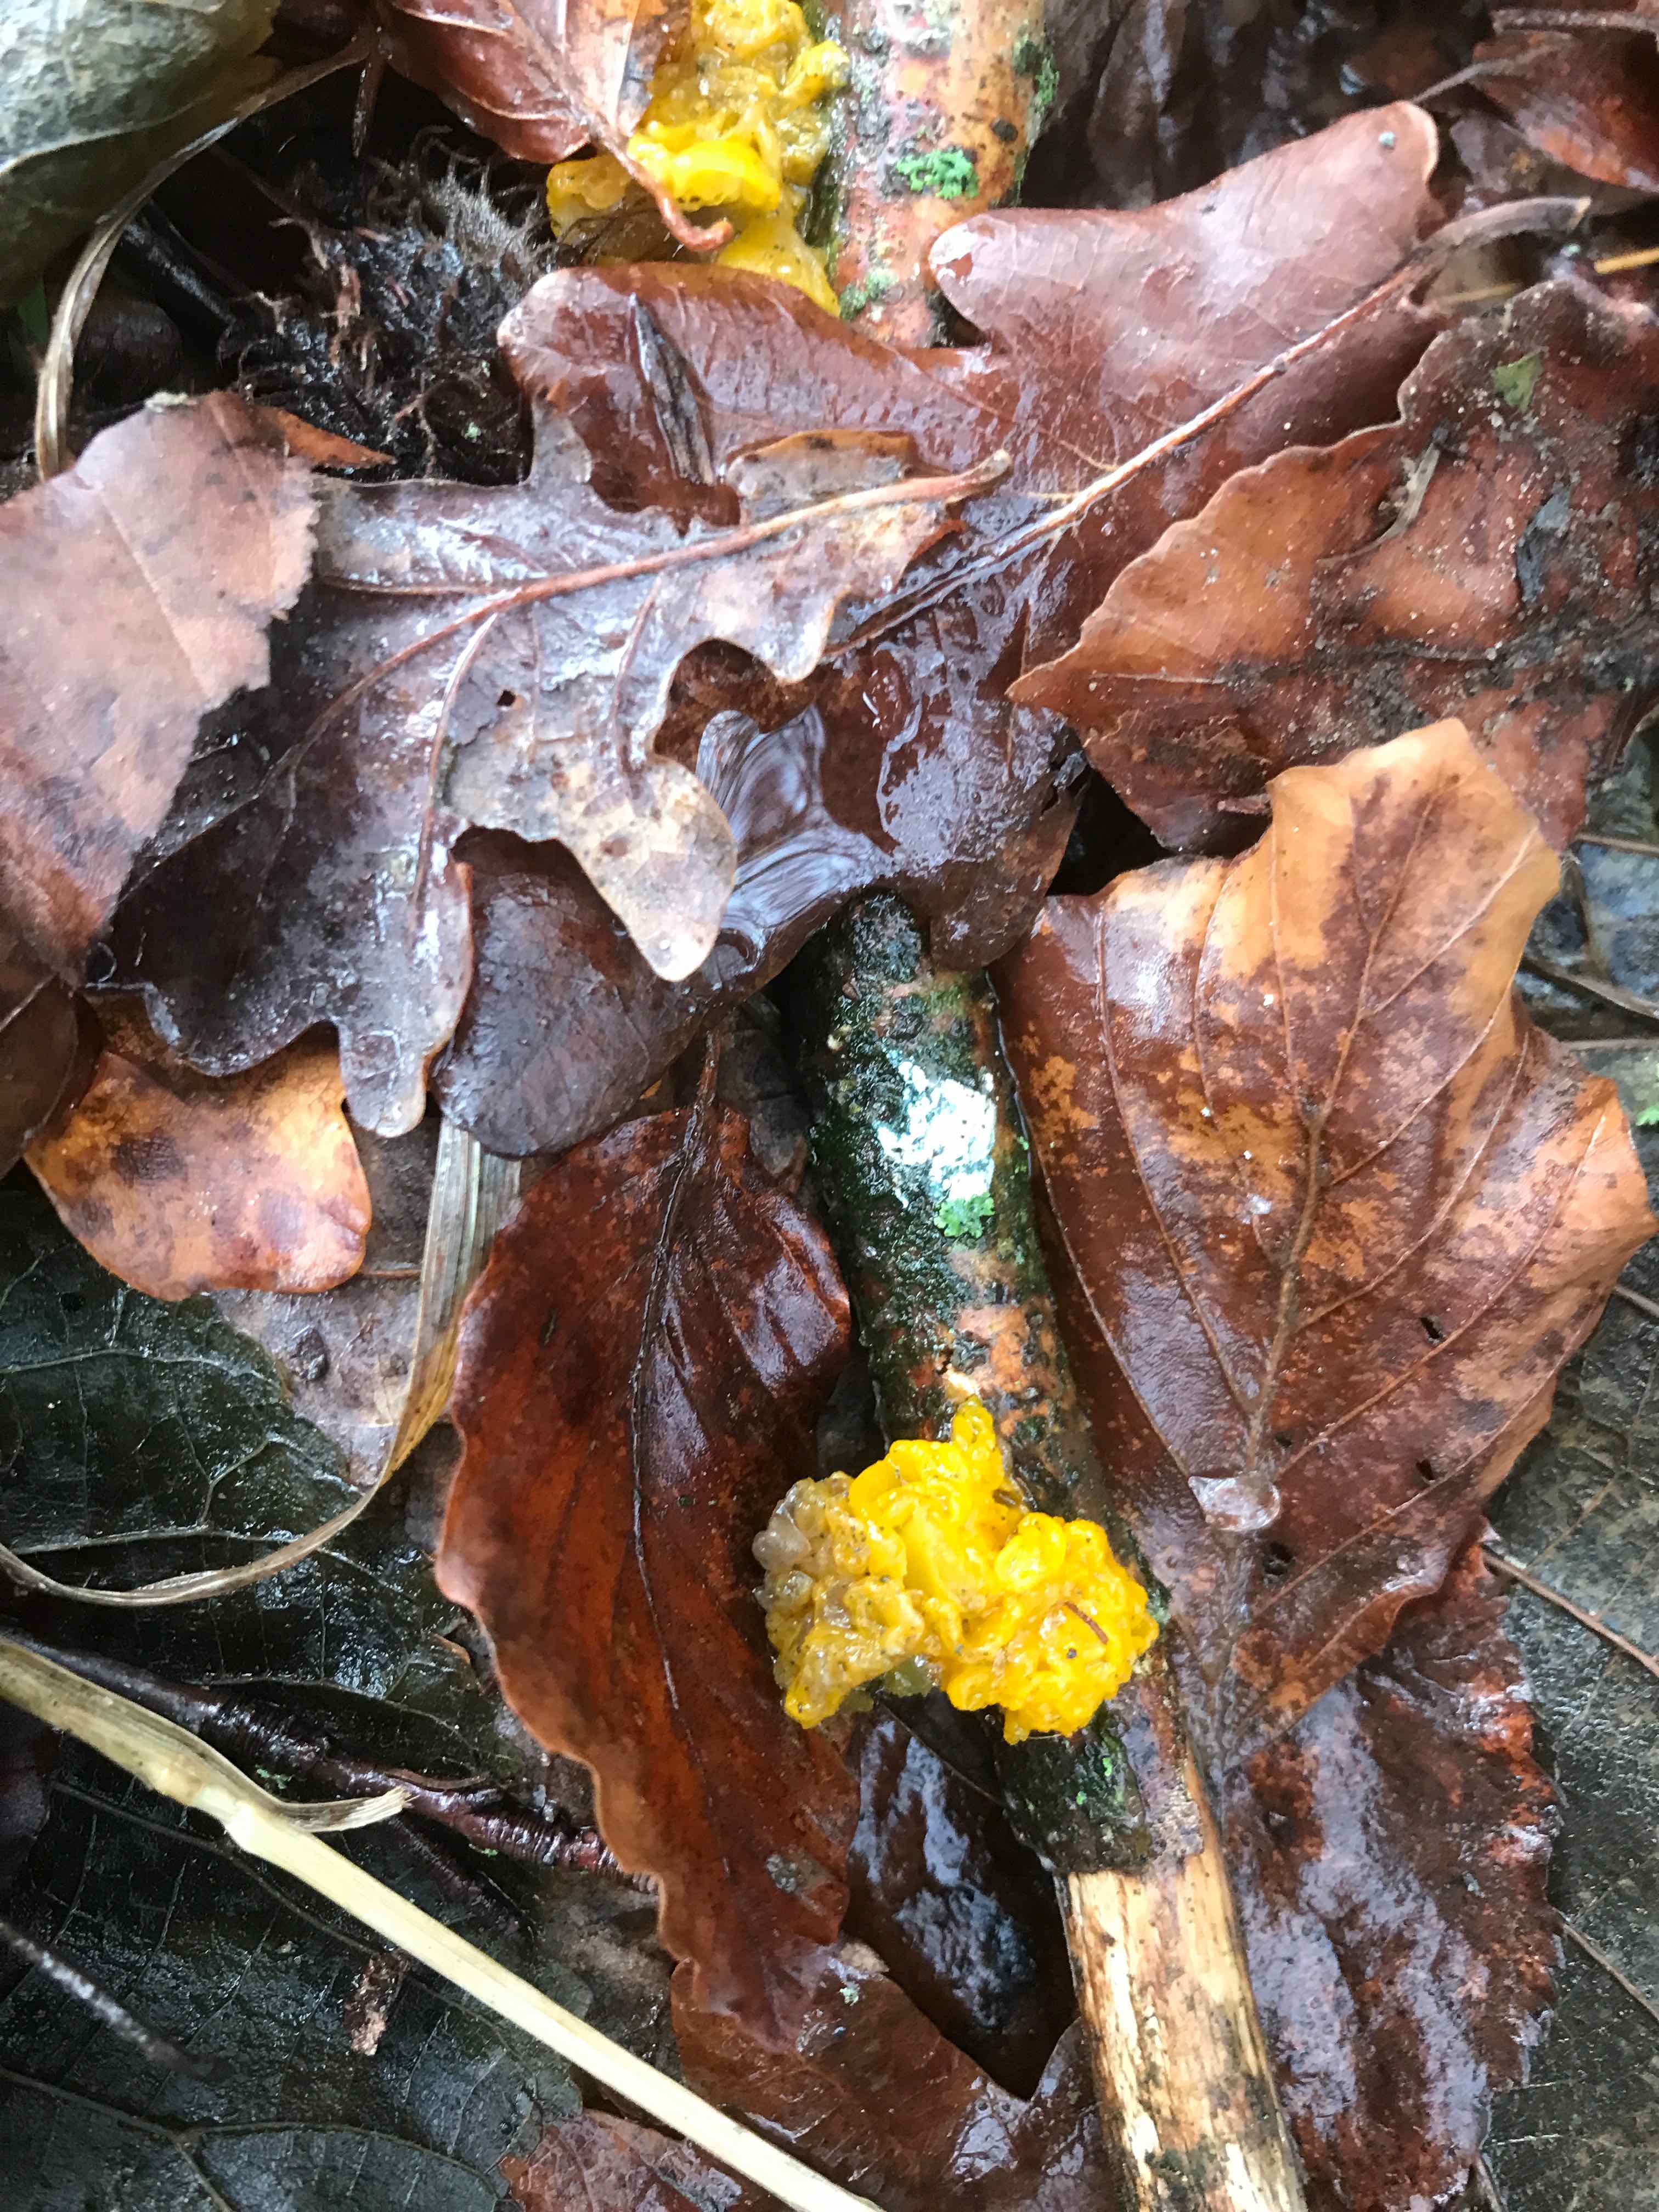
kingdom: Fungi
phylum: Basidiomycota
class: Tremellomycetes
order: Tremellales
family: Tremellaceae
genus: Tremella
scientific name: Tremella mesenterica
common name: gul bævresvamp
